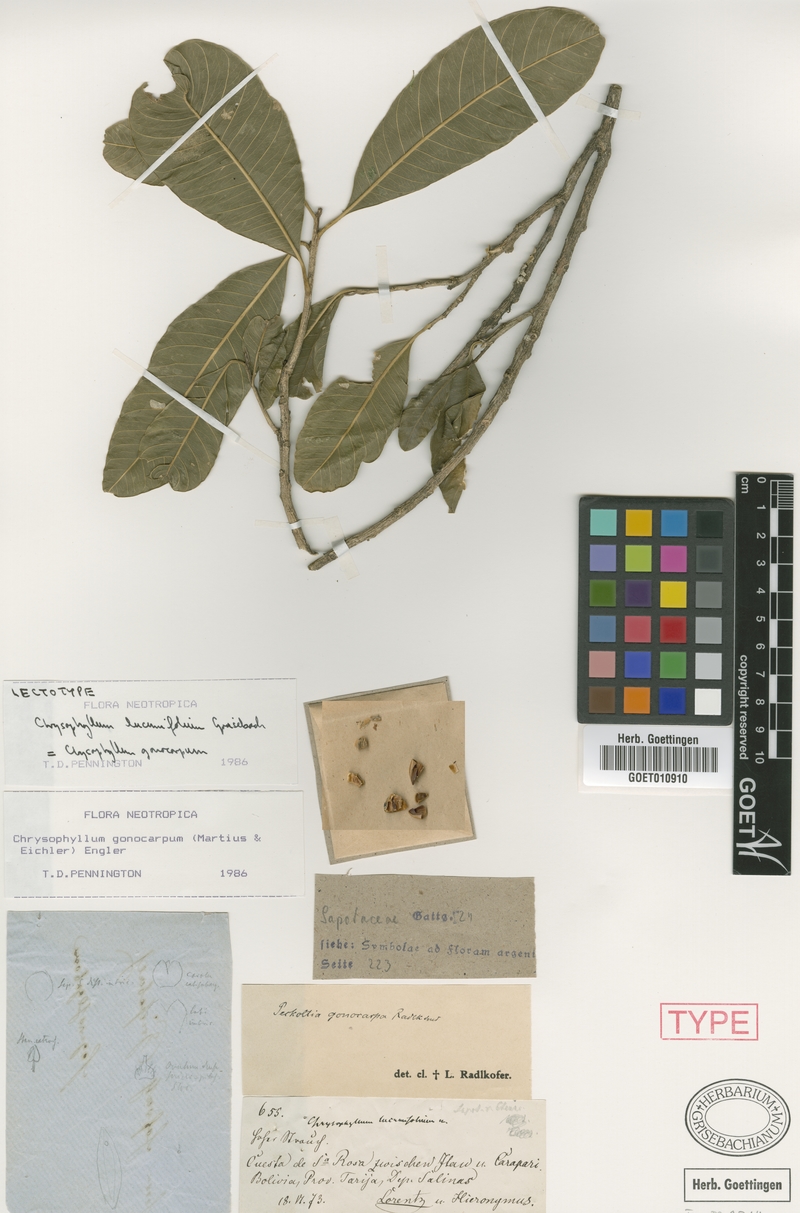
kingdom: Plantae
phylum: Tracheophyta
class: Magnoliopsida
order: Ericales
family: Sapotaceae
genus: Chrysophyllum
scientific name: Chrysophyllum gonocarpum
